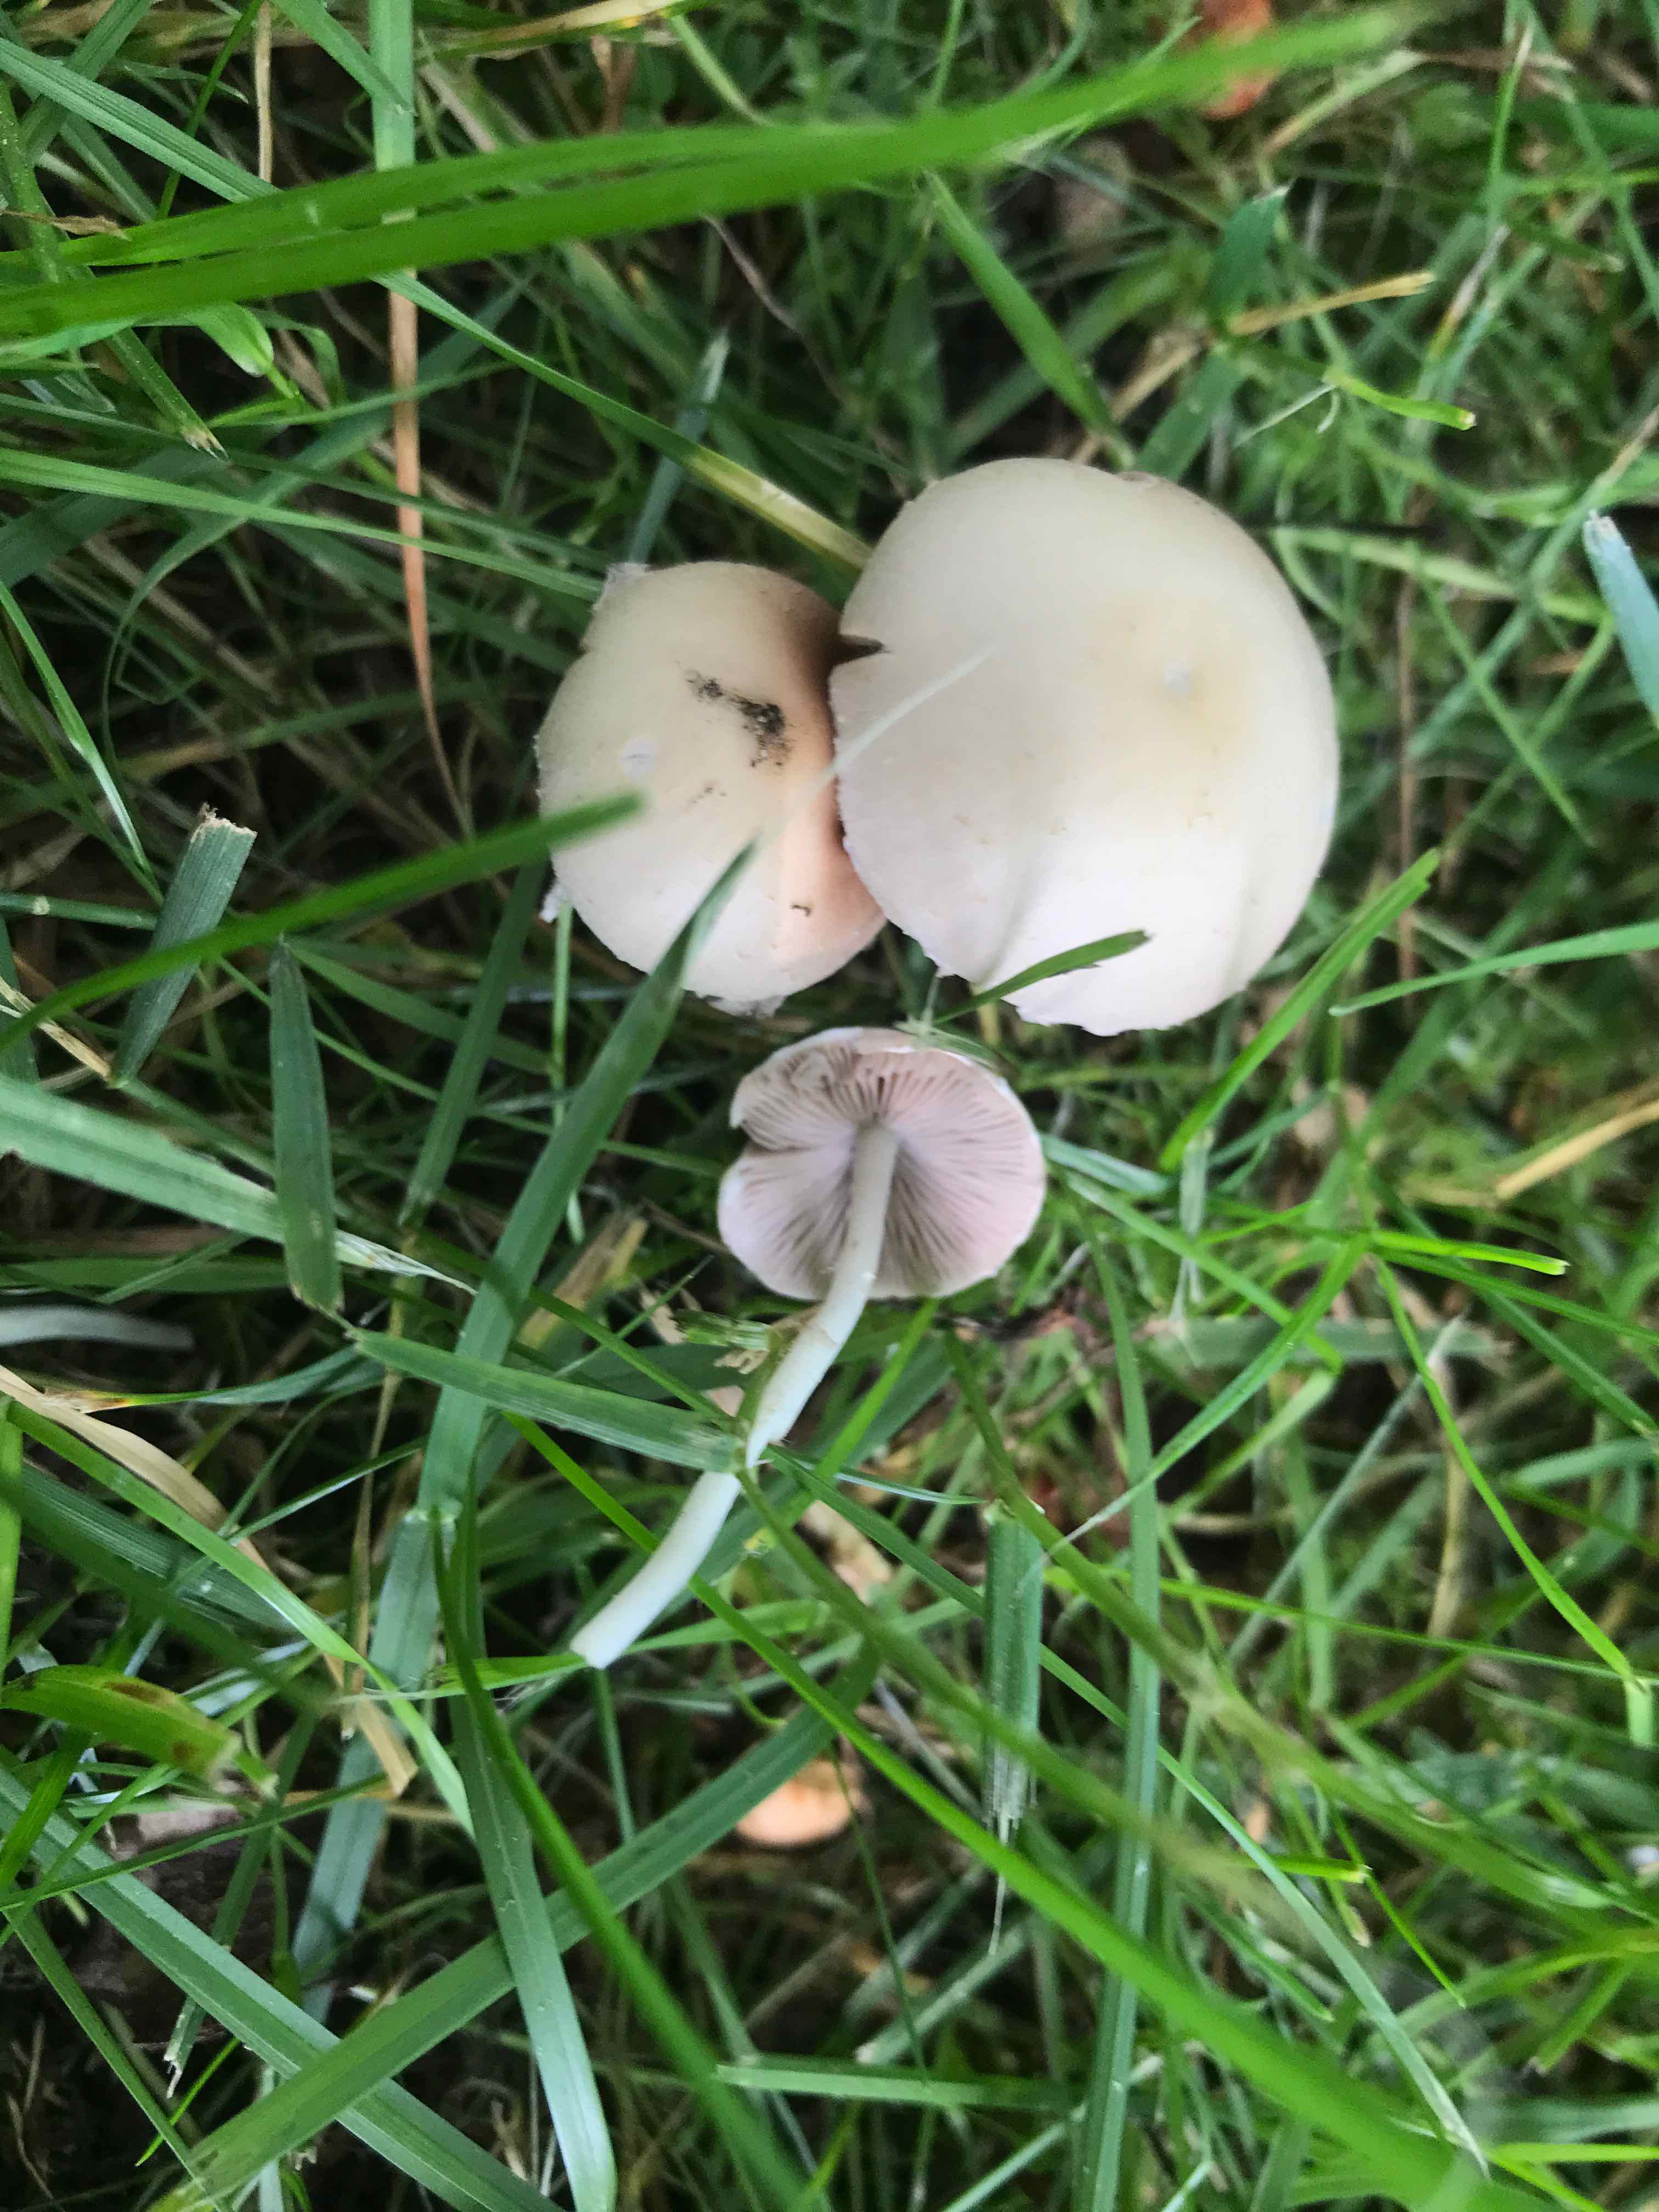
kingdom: Fungi
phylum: Basidiomycota
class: Agaricomycetes
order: Agaricales
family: Psathyrellaceae
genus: Candolleomyces
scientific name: Candolleomyces candolleanus
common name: Candolles mørkhat
